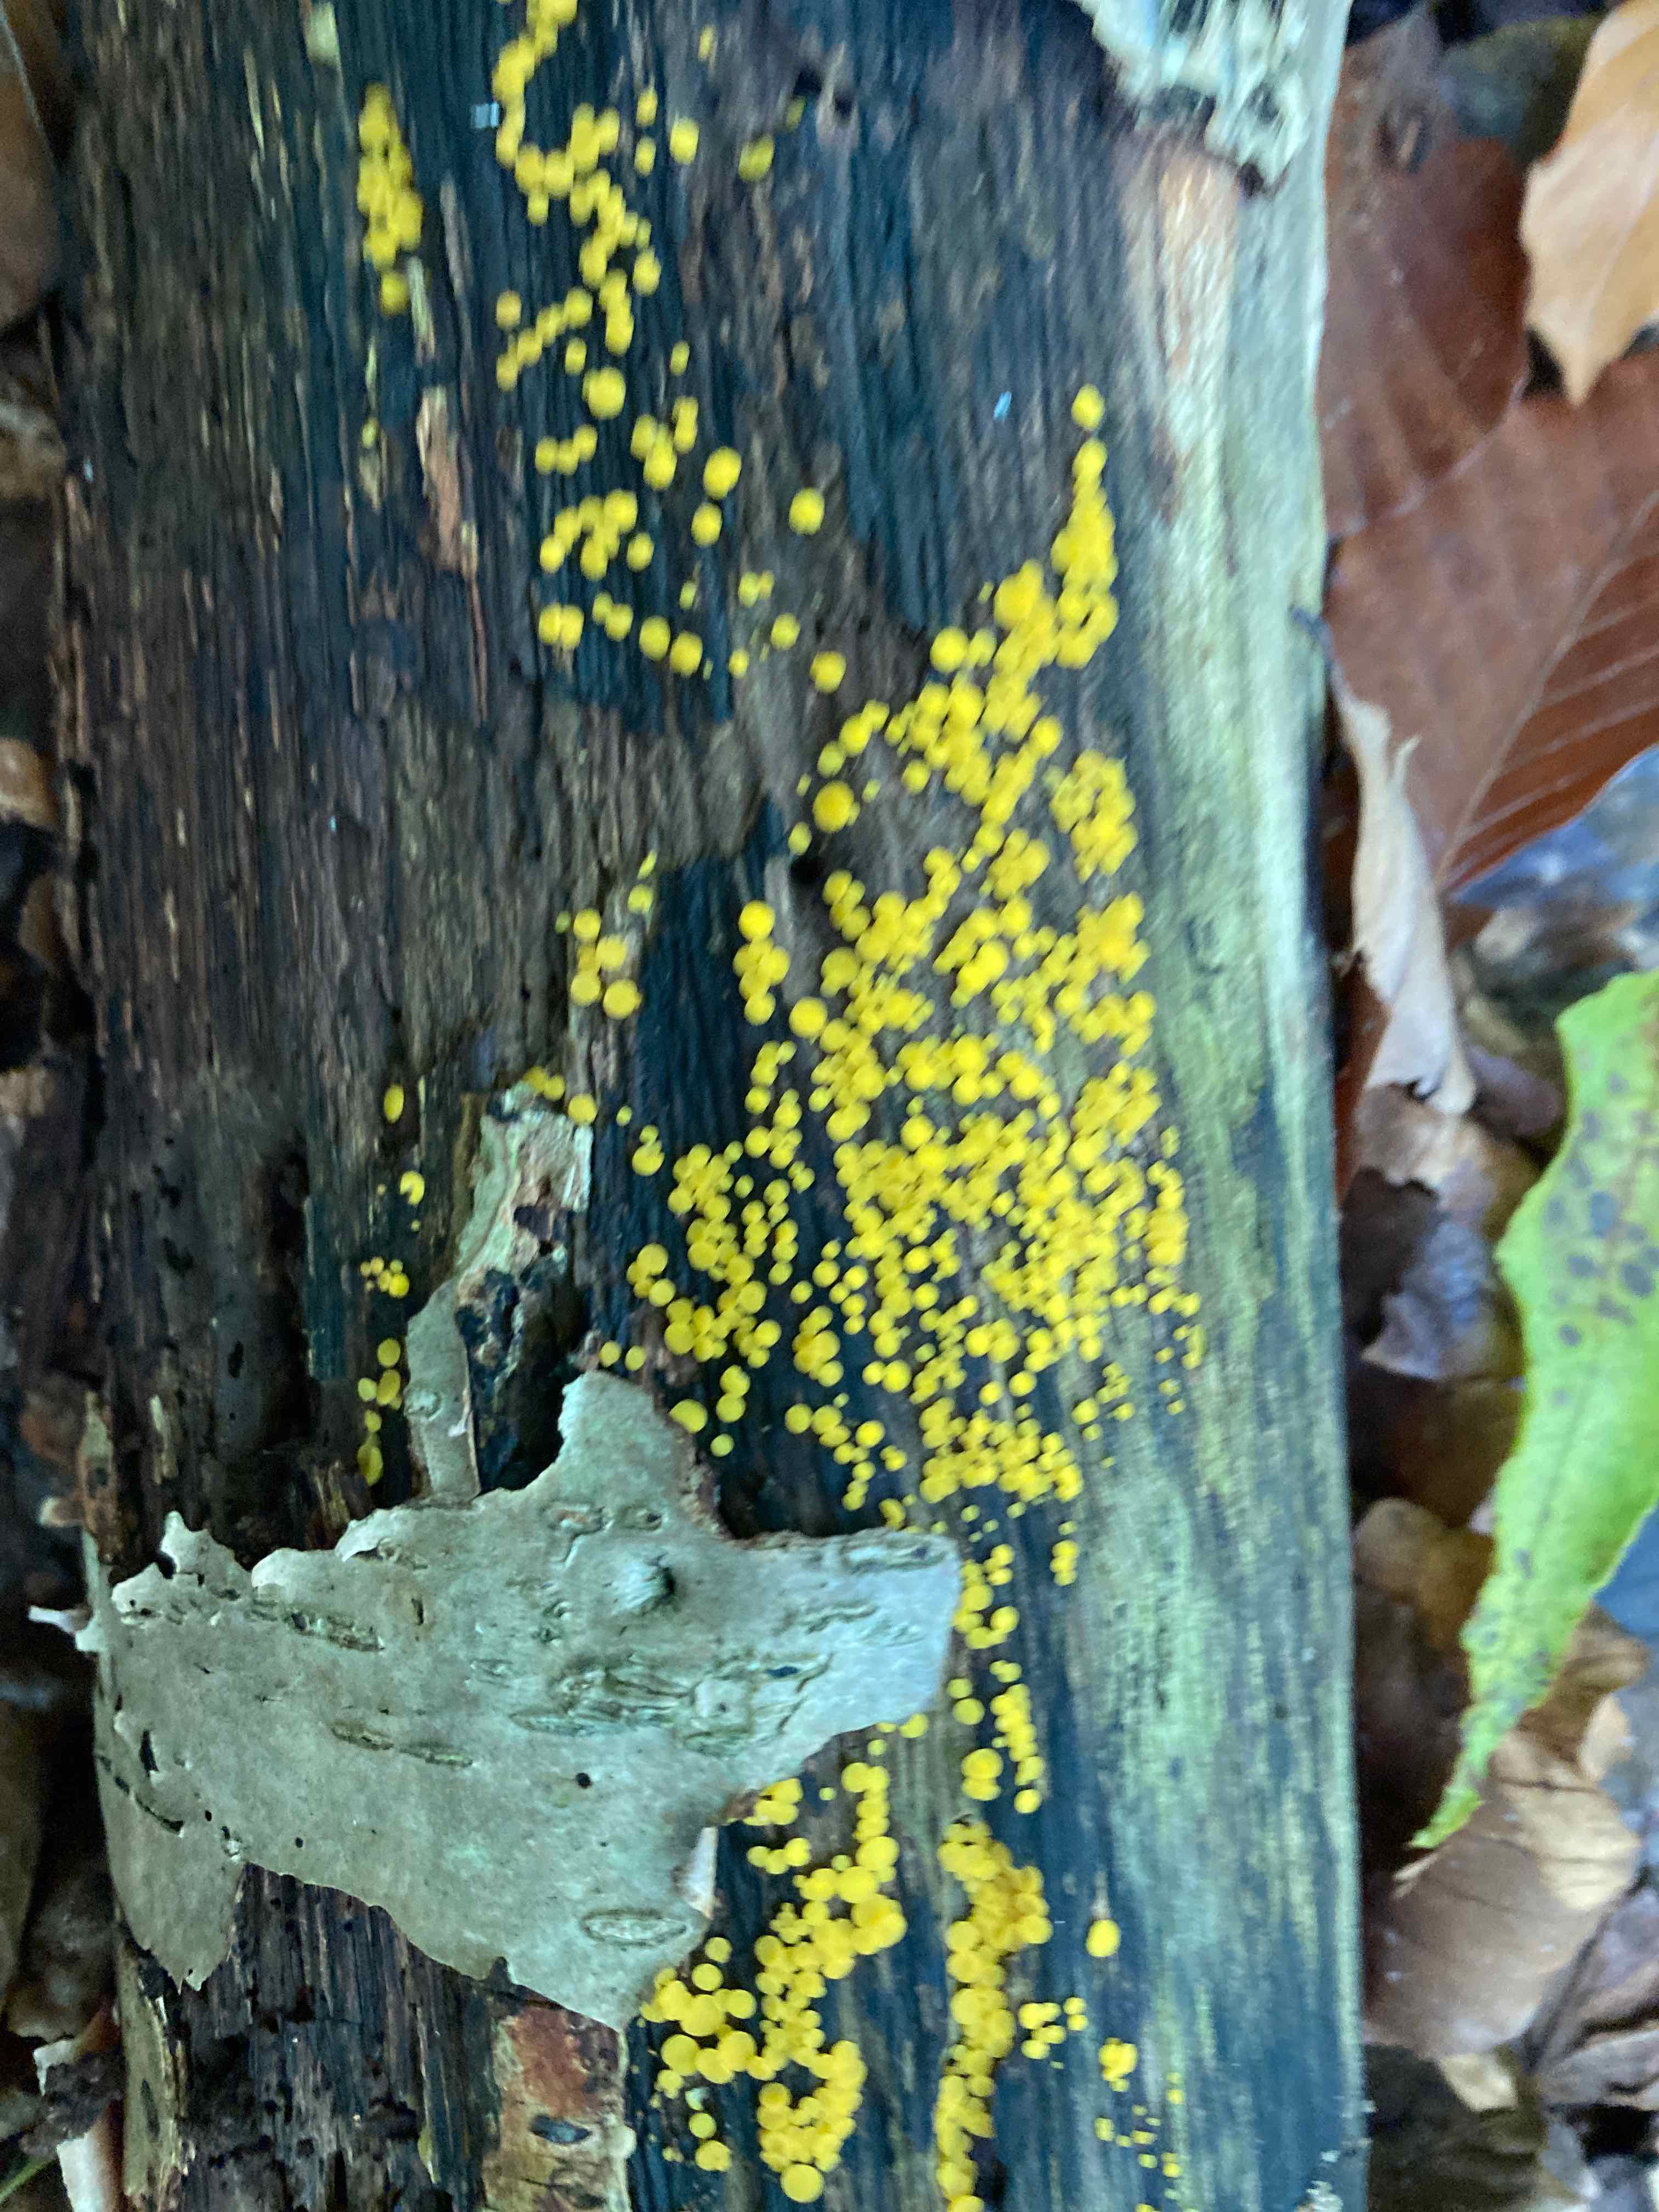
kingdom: Fungi
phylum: Ascomycota
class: Leotiomycetes
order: Helotiales
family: Pezizellaceae
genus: Calycina
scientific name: Calycina citrina
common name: almindelig gulskive
